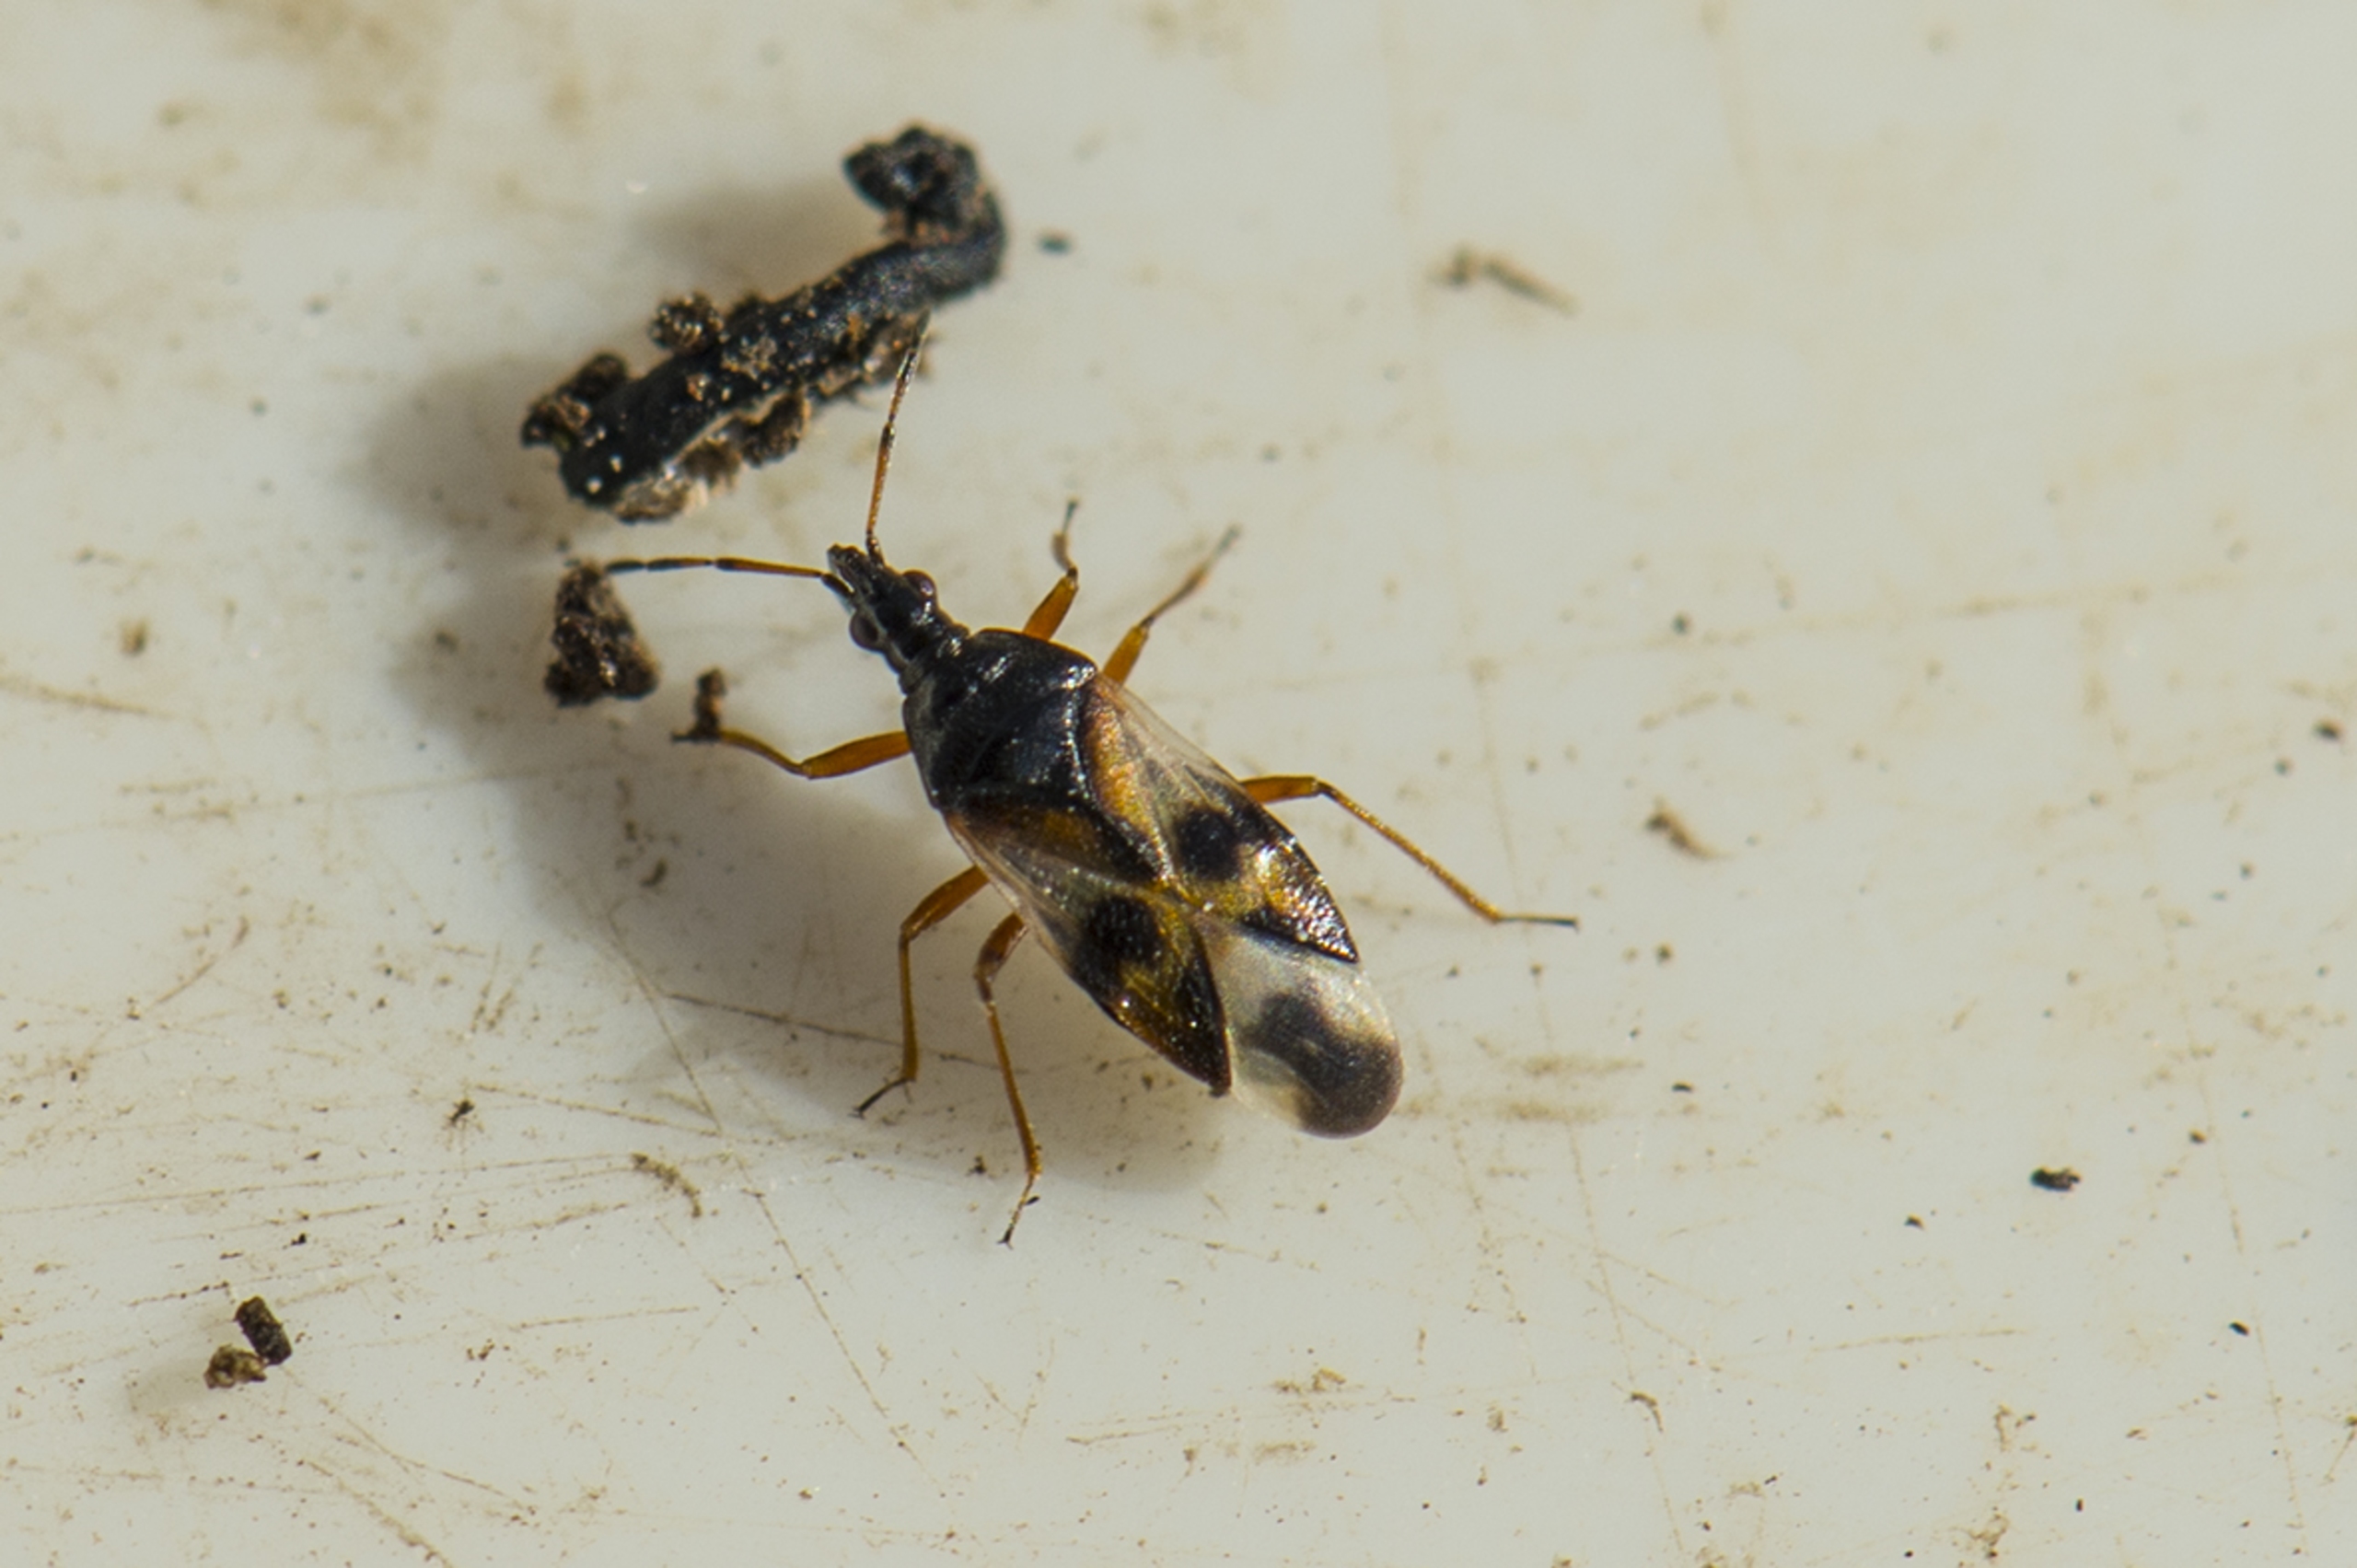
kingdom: Animalia
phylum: Arthropoda
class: Insecta
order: Hemiptera
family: Anthocoridae
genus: Anthocoris
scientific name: Anthocoris nemorum
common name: Skinnende bladlustæge
